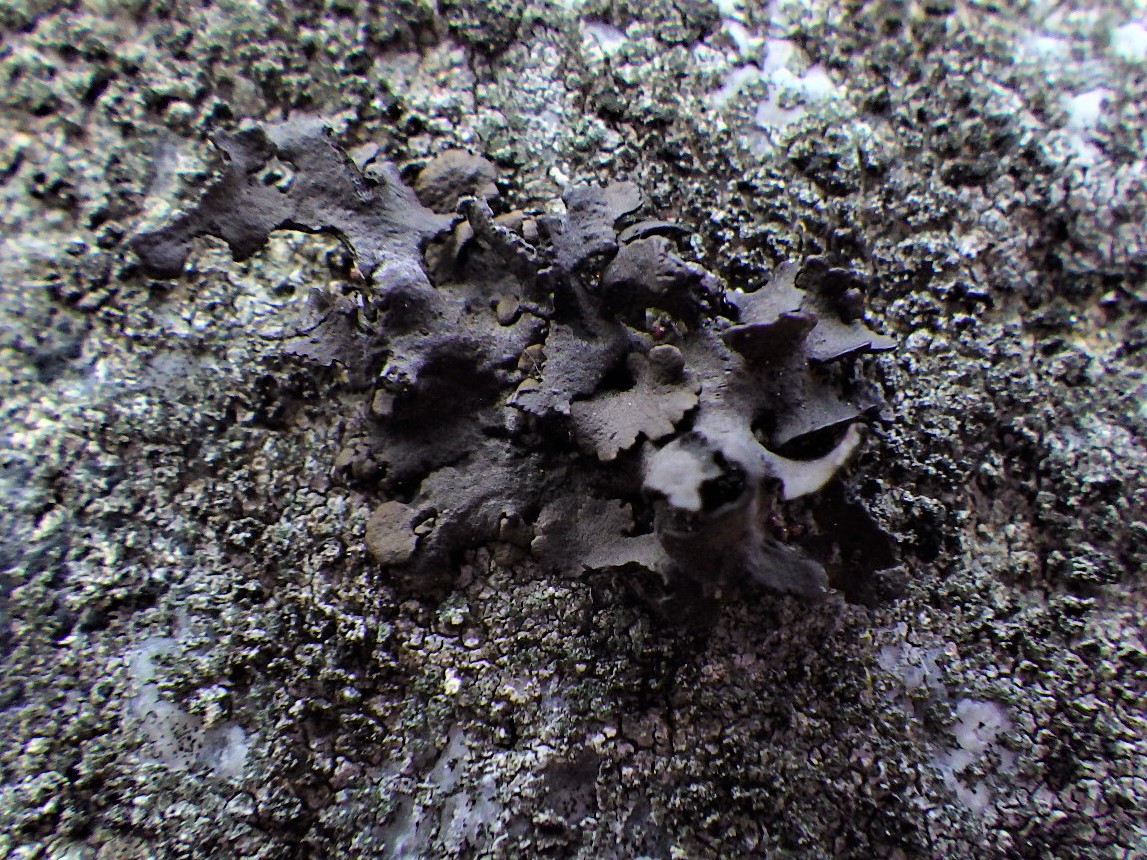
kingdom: Fungi
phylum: Ascomycota
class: Lecanoromycetes
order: Umbilicariales
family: Umbilicariaceae
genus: Umbilicaria
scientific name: Umbilicaria deusta
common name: kliddet navlelav
